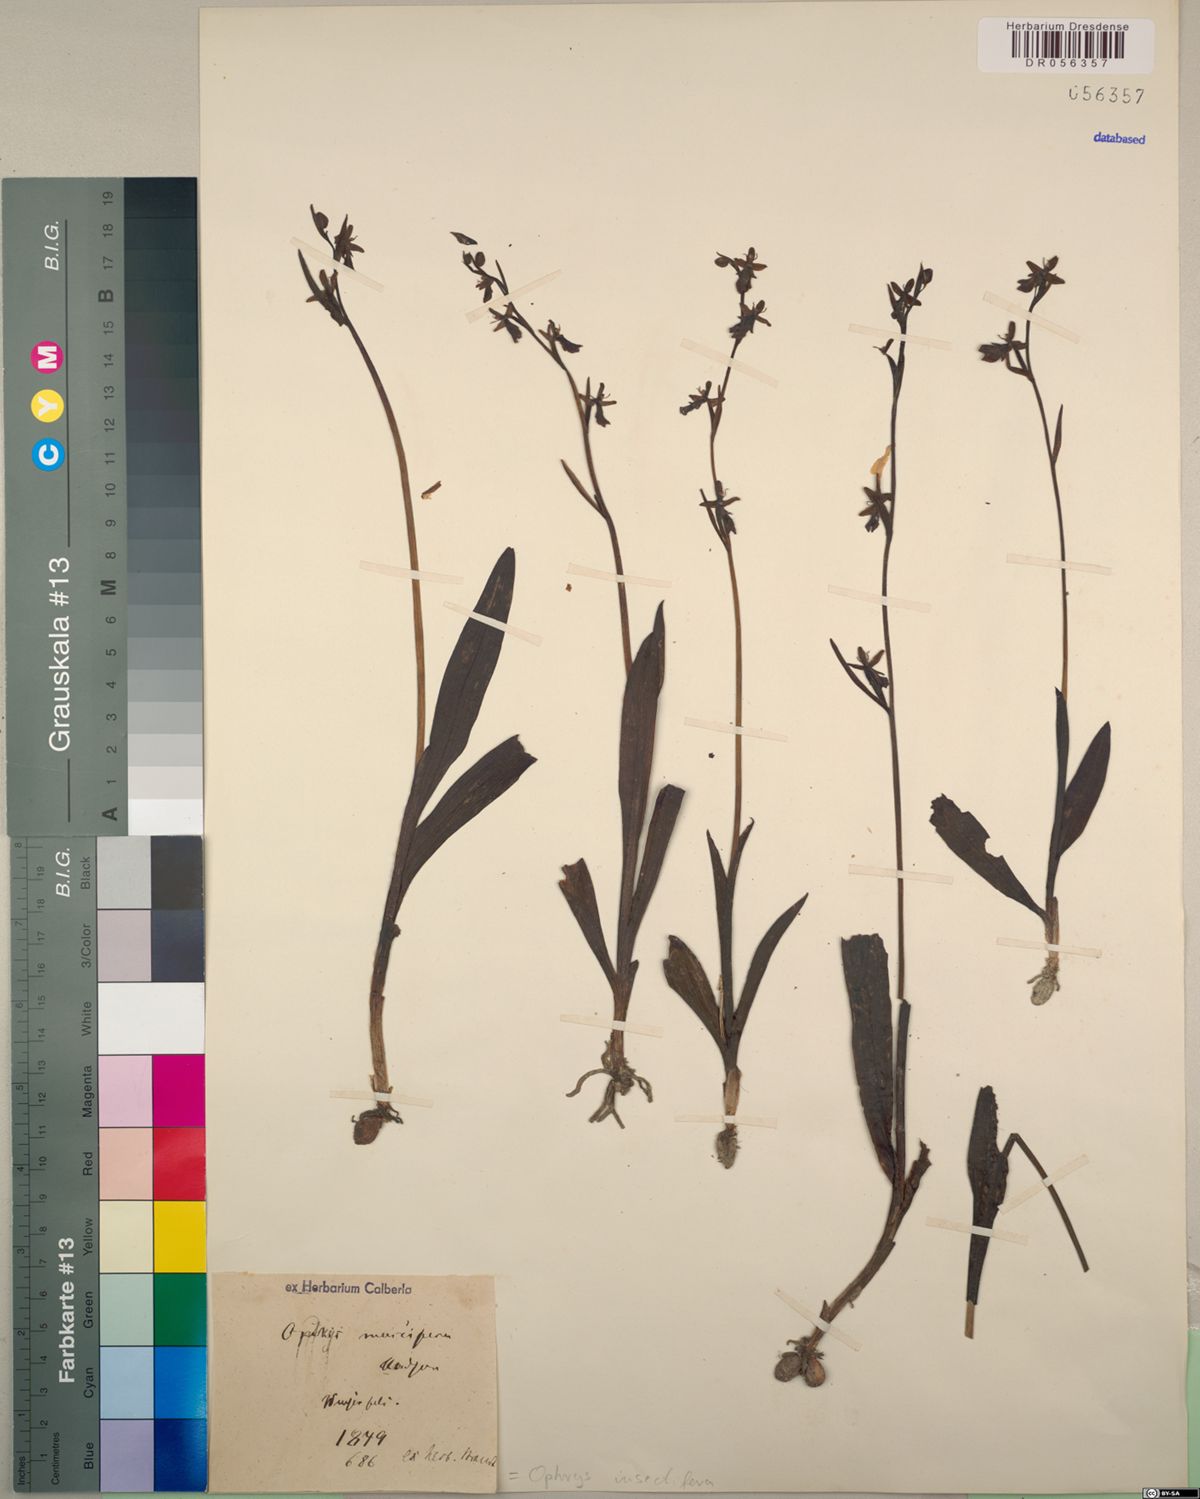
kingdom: Plantae
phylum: Tracheophyta
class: Liliopsida
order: Asparagales
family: Orchidaceae
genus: Ophrys
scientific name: Ophrys insectifera
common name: Fly orchid
